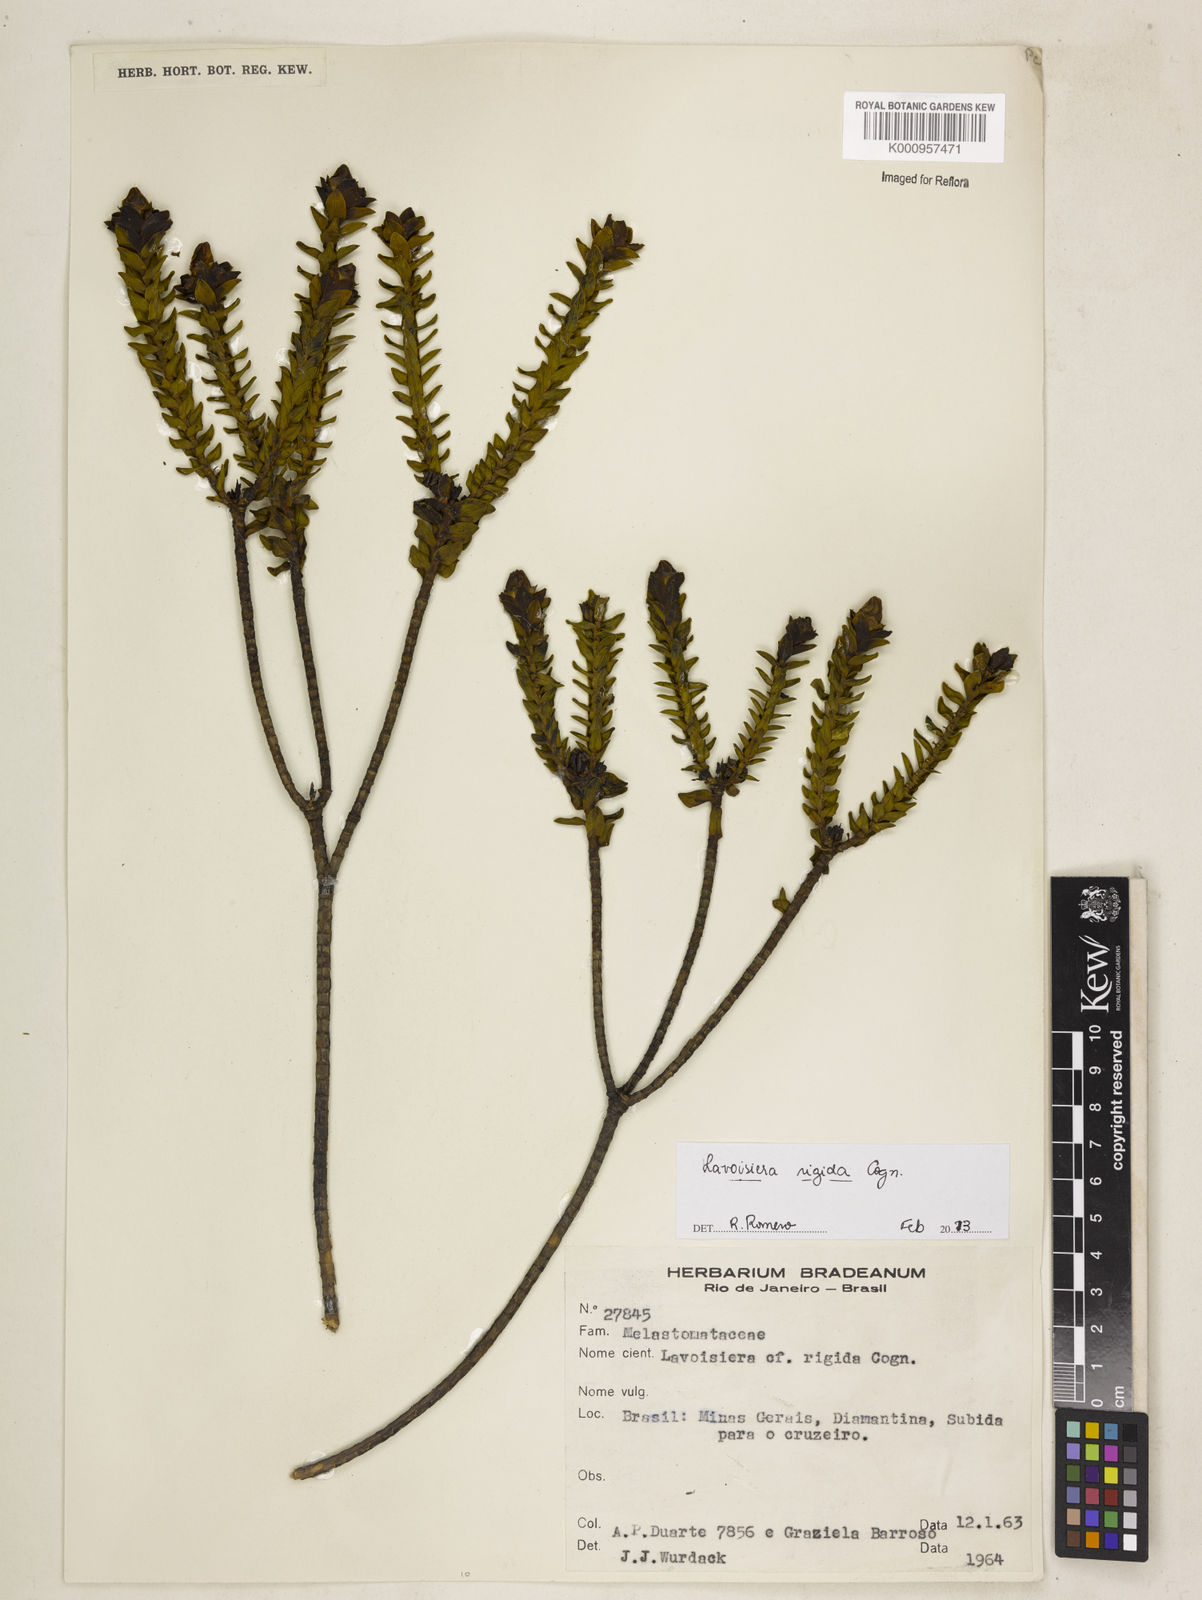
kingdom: Plantae
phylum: Tracheophyta
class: Magnoliopsida
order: Myrtales
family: Melastomataceae
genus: Microlicia
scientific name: Microlicia rigida
